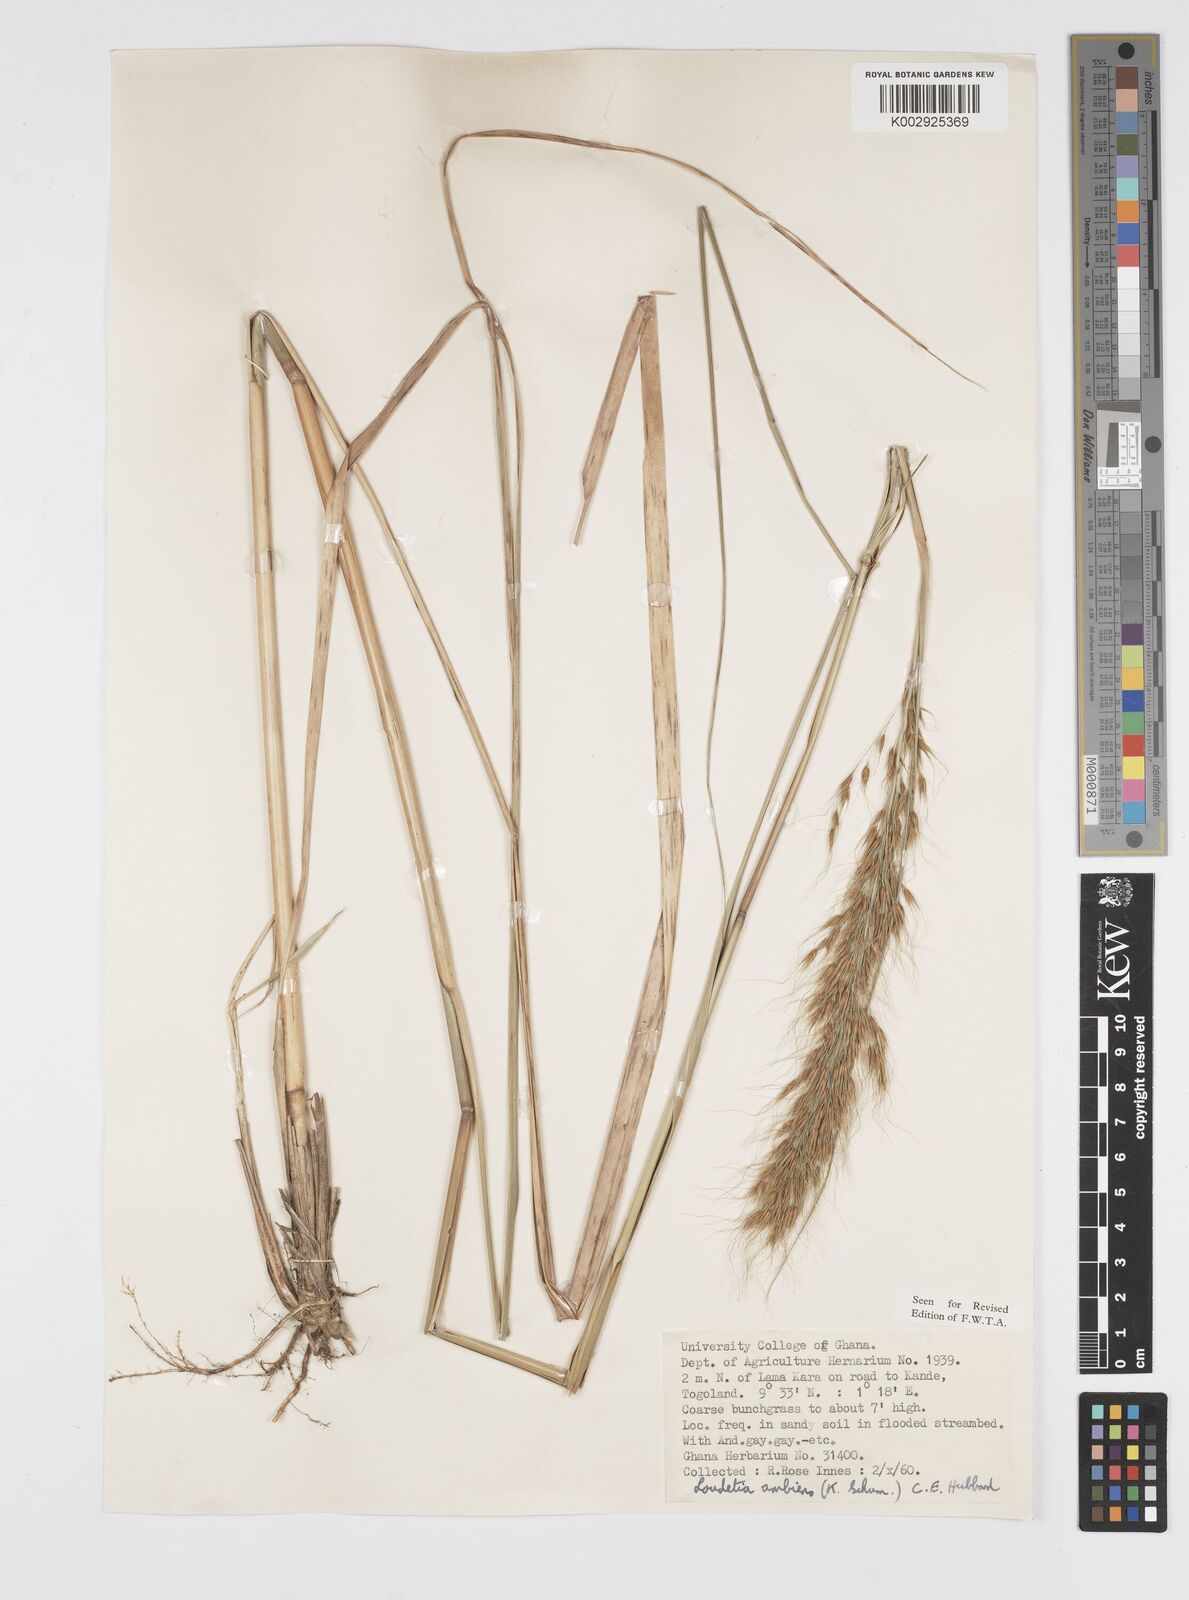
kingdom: Plantae
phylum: Tracheophyta
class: Liliopsida
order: Poales
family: Poaceae
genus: Loudetiopsis
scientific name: Loudetiopsis ambiens
